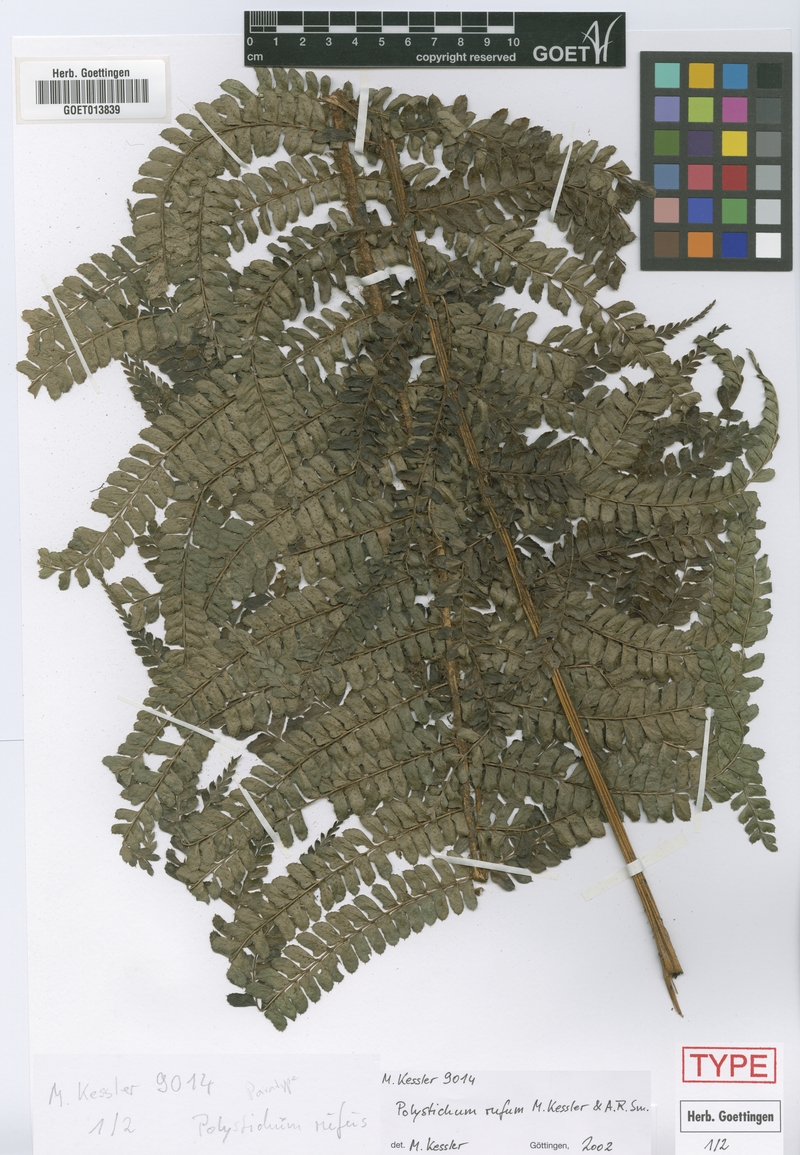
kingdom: Plantae
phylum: Tracheophyta
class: Polypodiopsida
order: Polypodiales
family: Dryopteridaceae
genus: Polystichum
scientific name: Polystichum rufum
